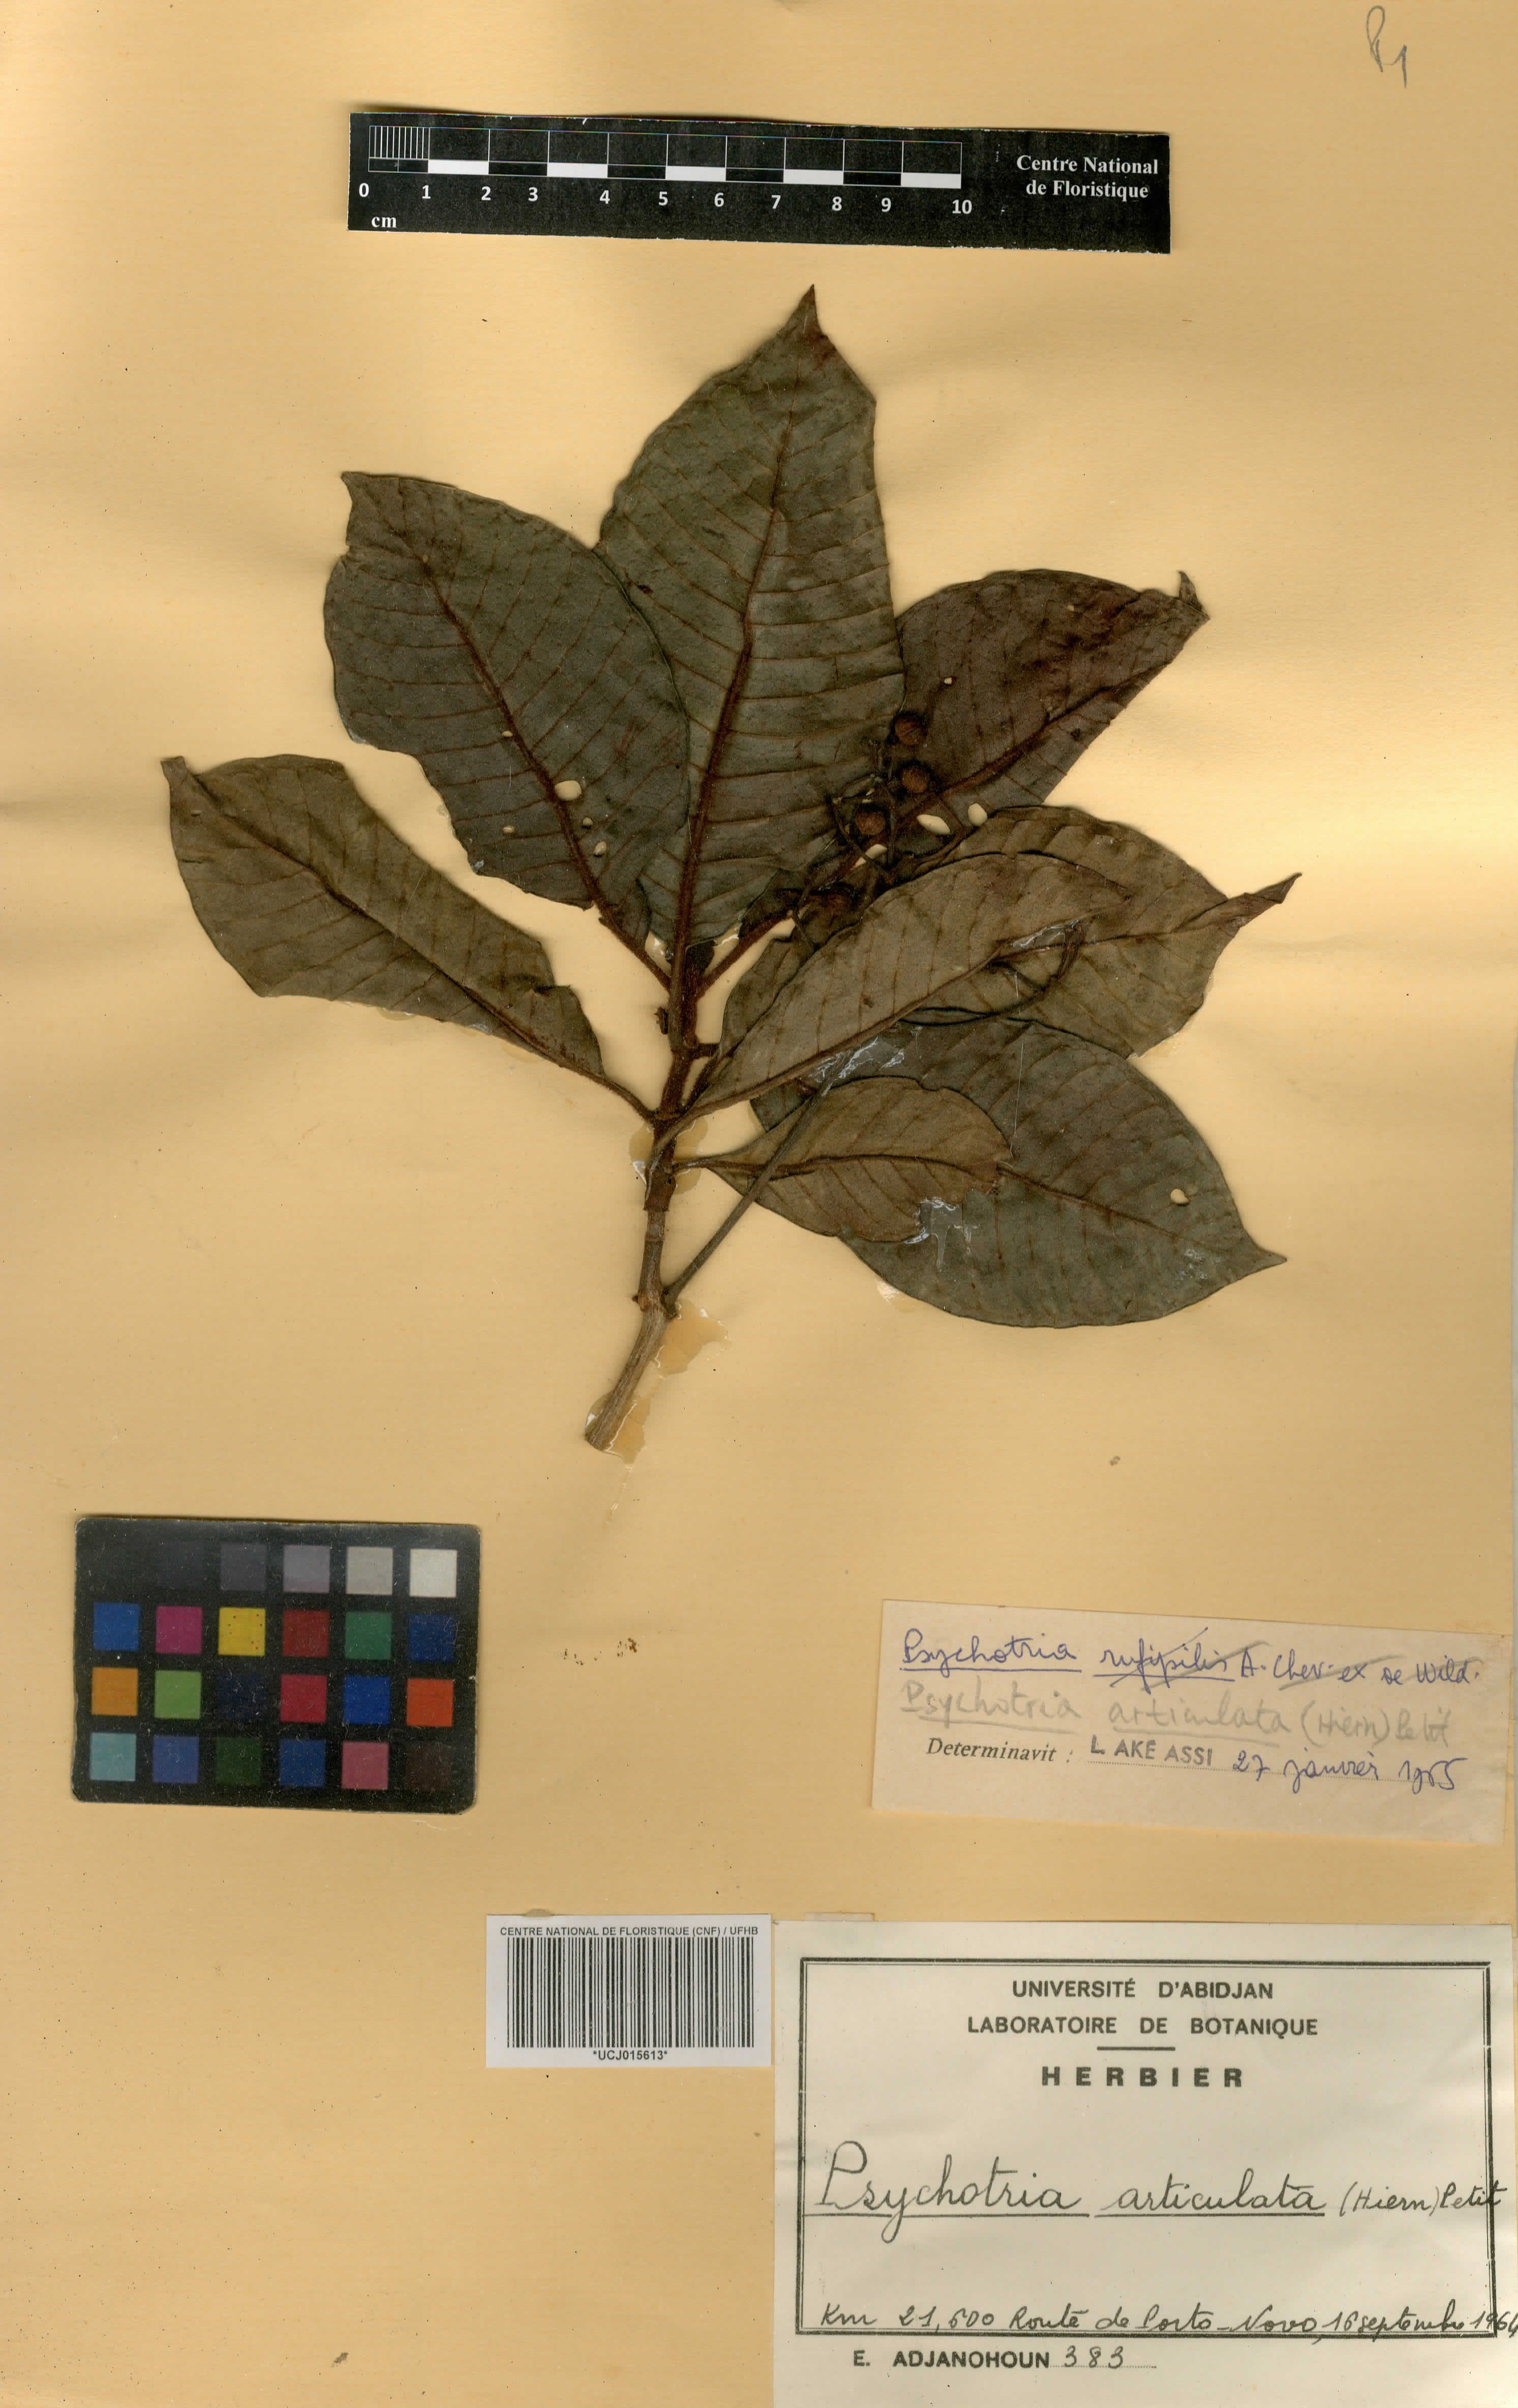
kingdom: Plantae
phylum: Tracheophyta
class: Magnoliopsida
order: Gentianales
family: Rubiaceae
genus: Psychotria
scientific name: Psychotria articulata
